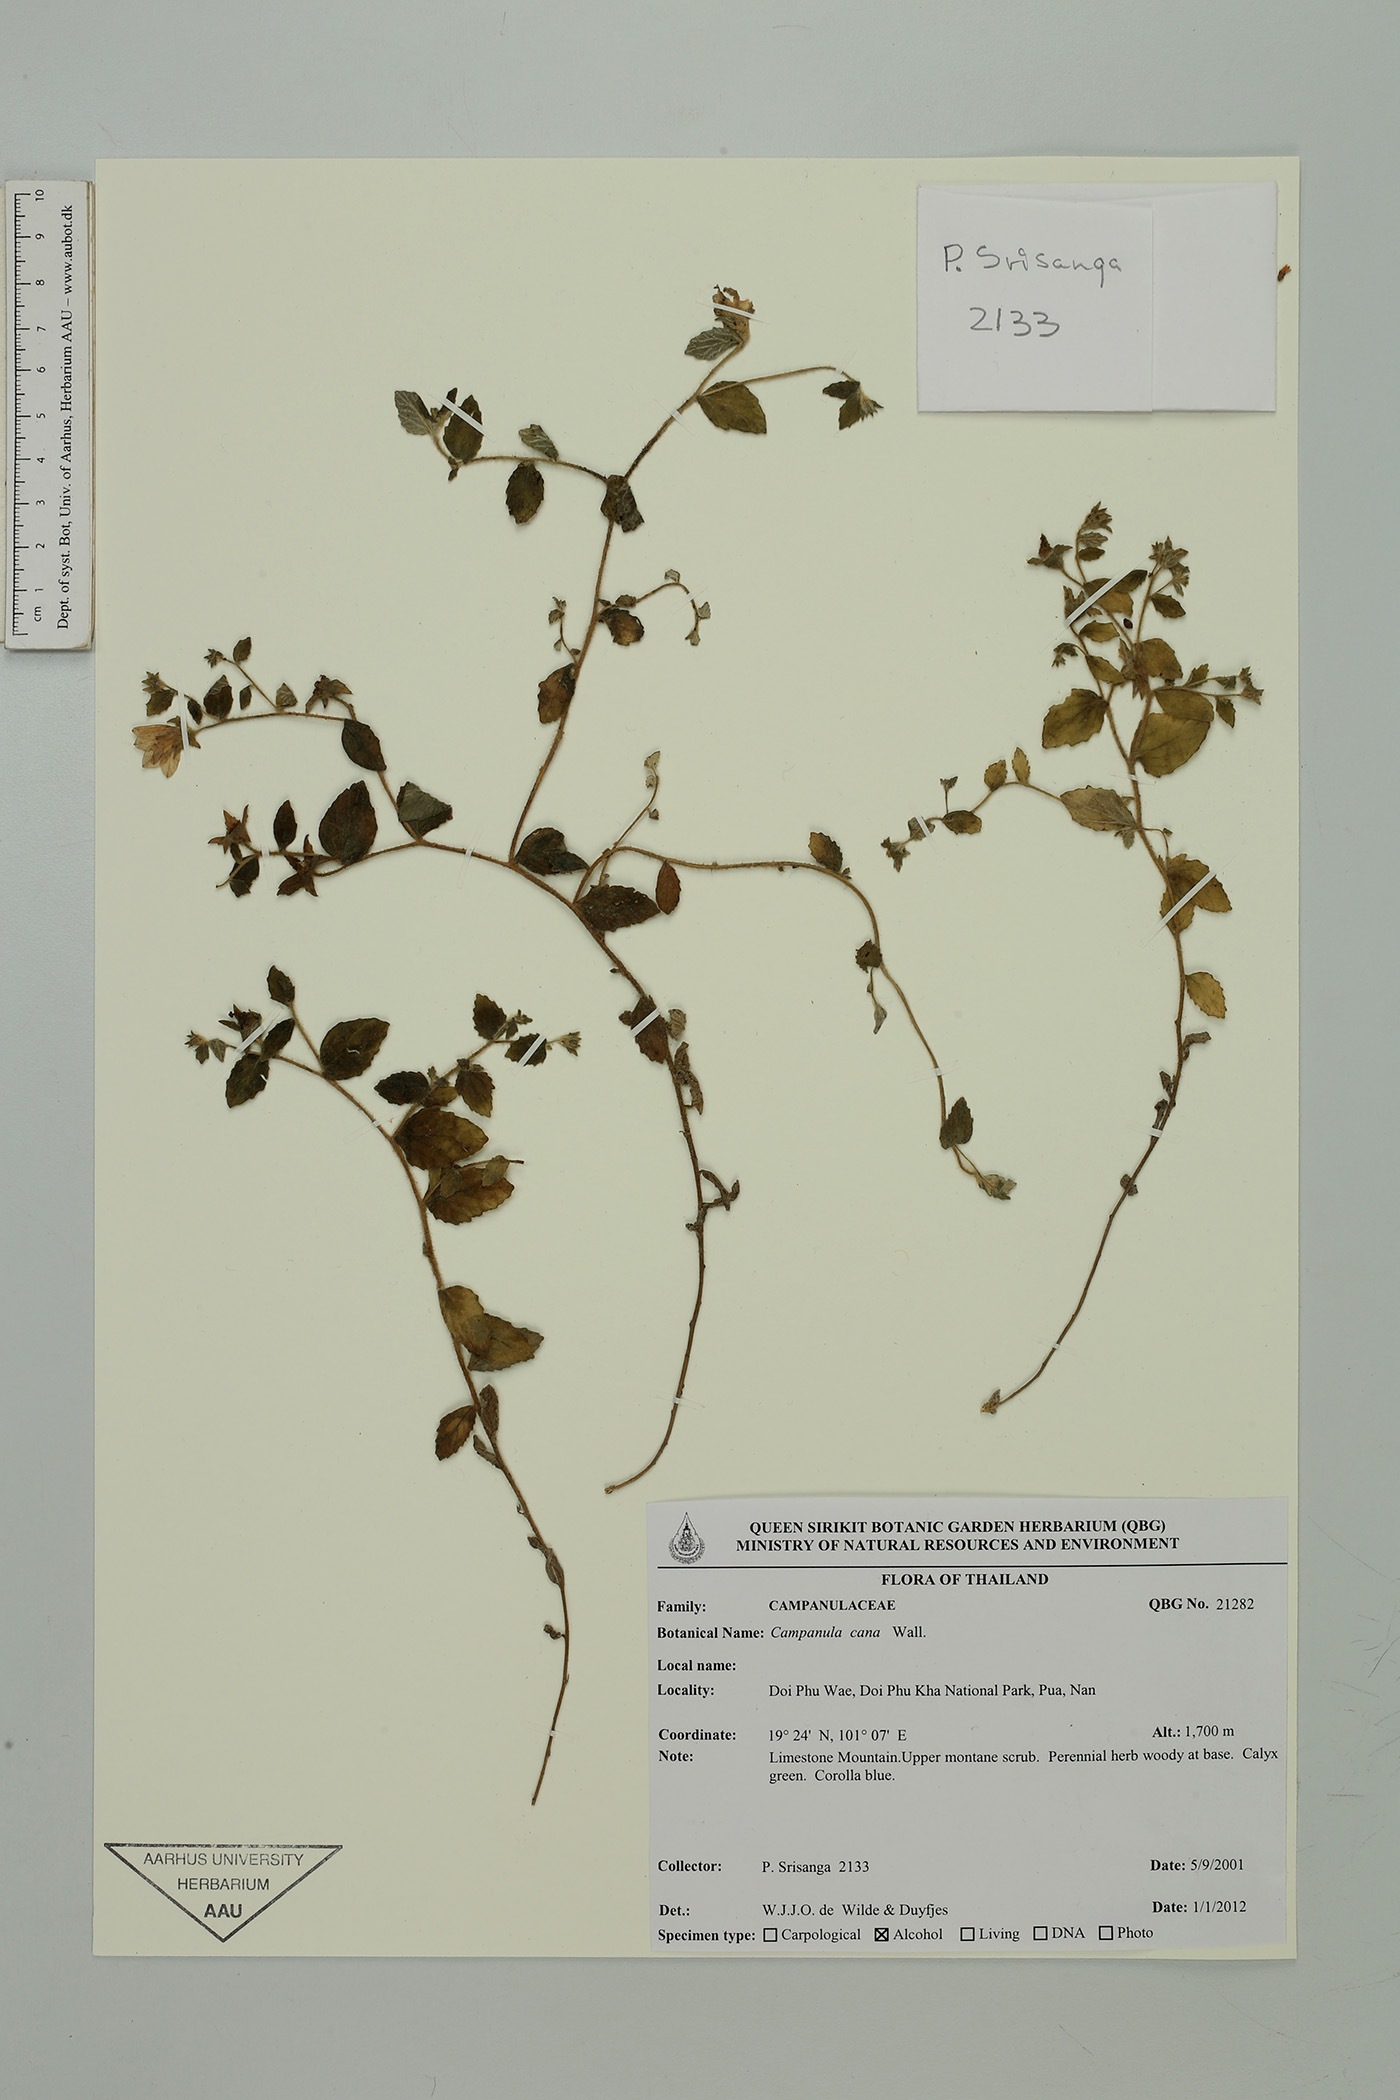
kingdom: Plantae
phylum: Tracheophyta
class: Magnoliopsida
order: Asterales
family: Campanulaceae
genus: Campanula
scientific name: Campanula cana
